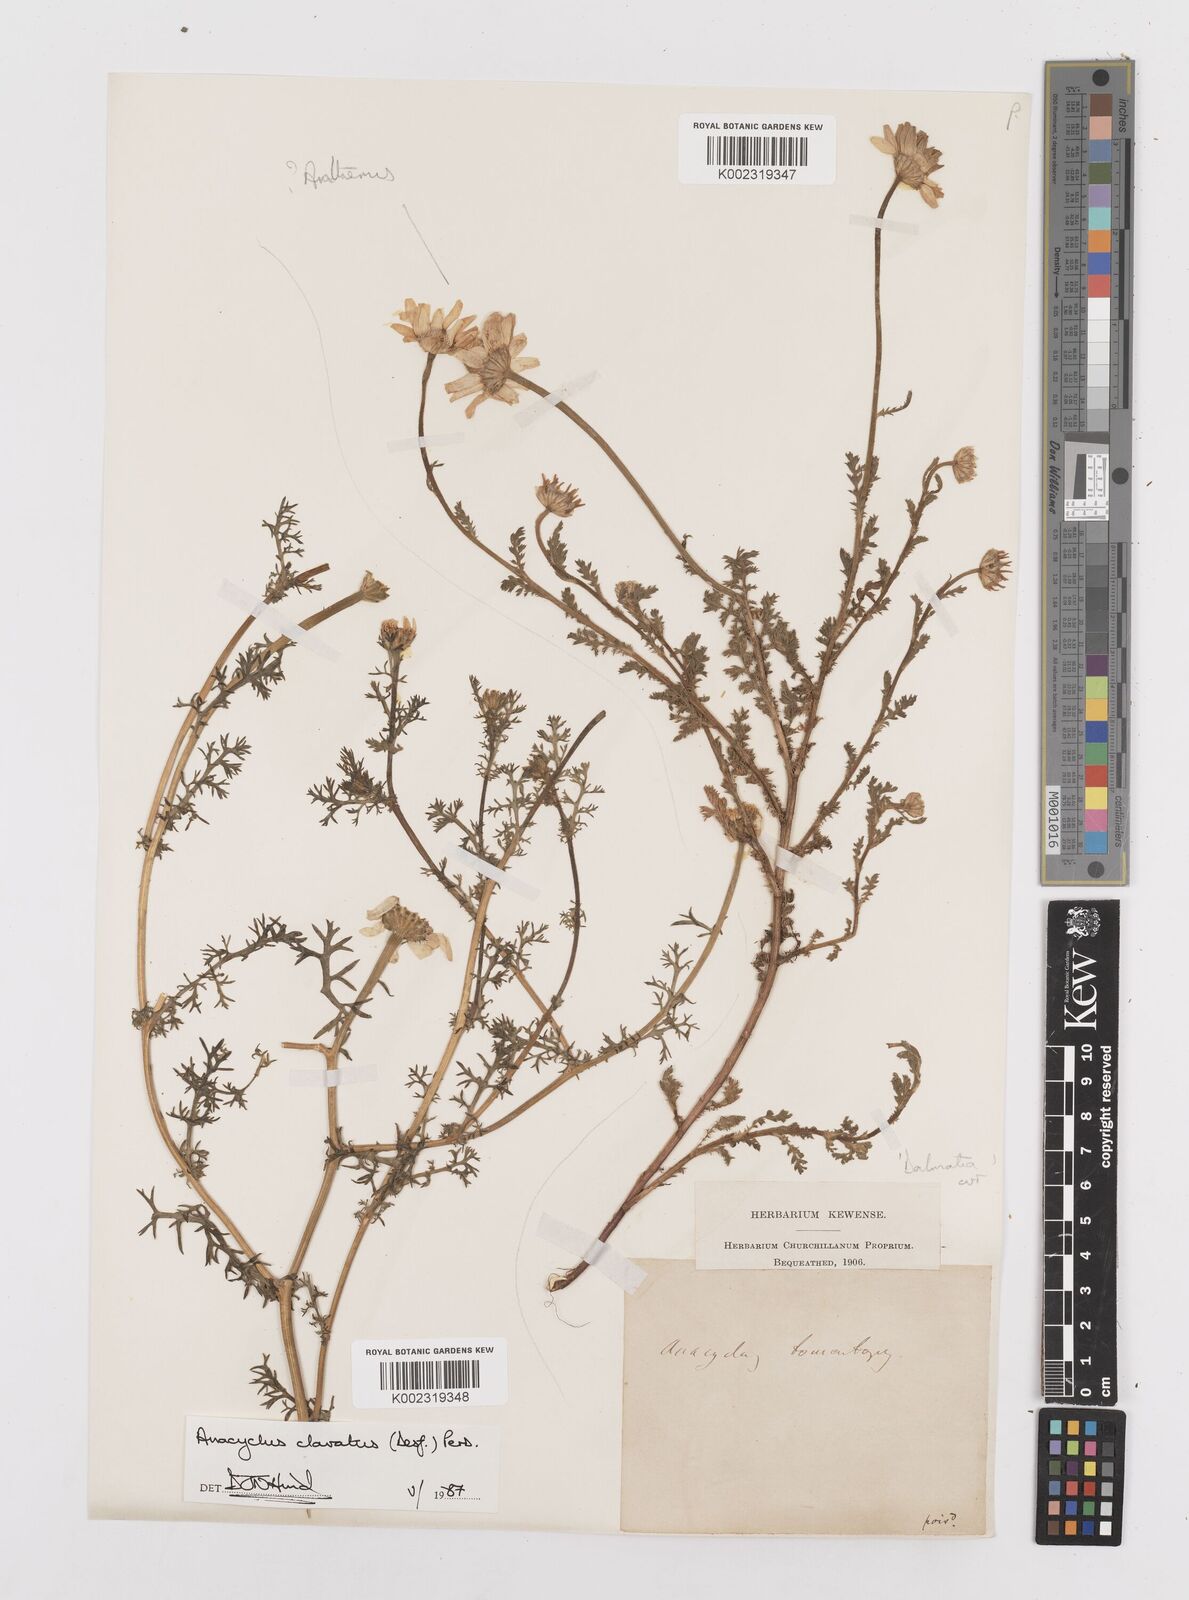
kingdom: Plantae
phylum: Tracheophyta
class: Magnoliopsida
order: Asterales
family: Asteraceae
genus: Anacyclus
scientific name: Anacyclus clavatus
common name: Whitebuttons
